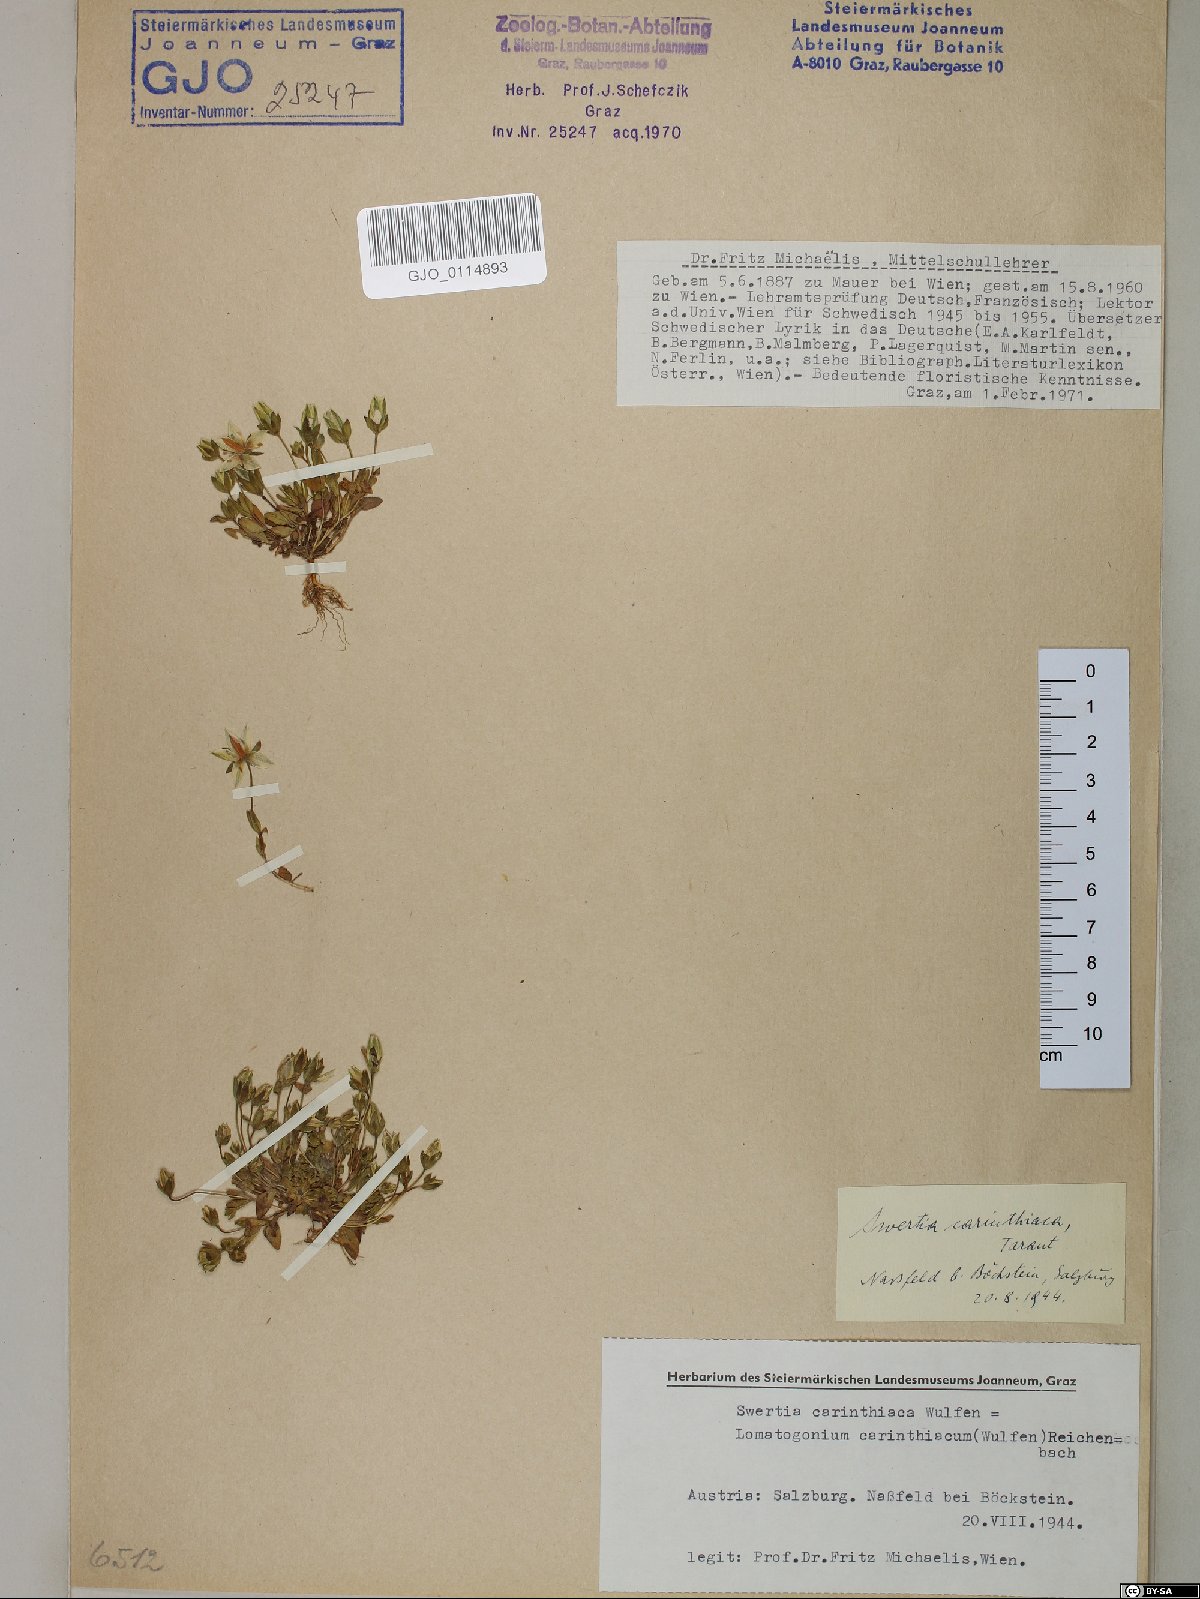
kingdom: Plantae
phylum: Tracheophyta
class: Magnoliopsida
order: Gentianales
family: Gentianaceae
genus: Lomatogonium
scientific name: Lomatogonium carinthiacum
